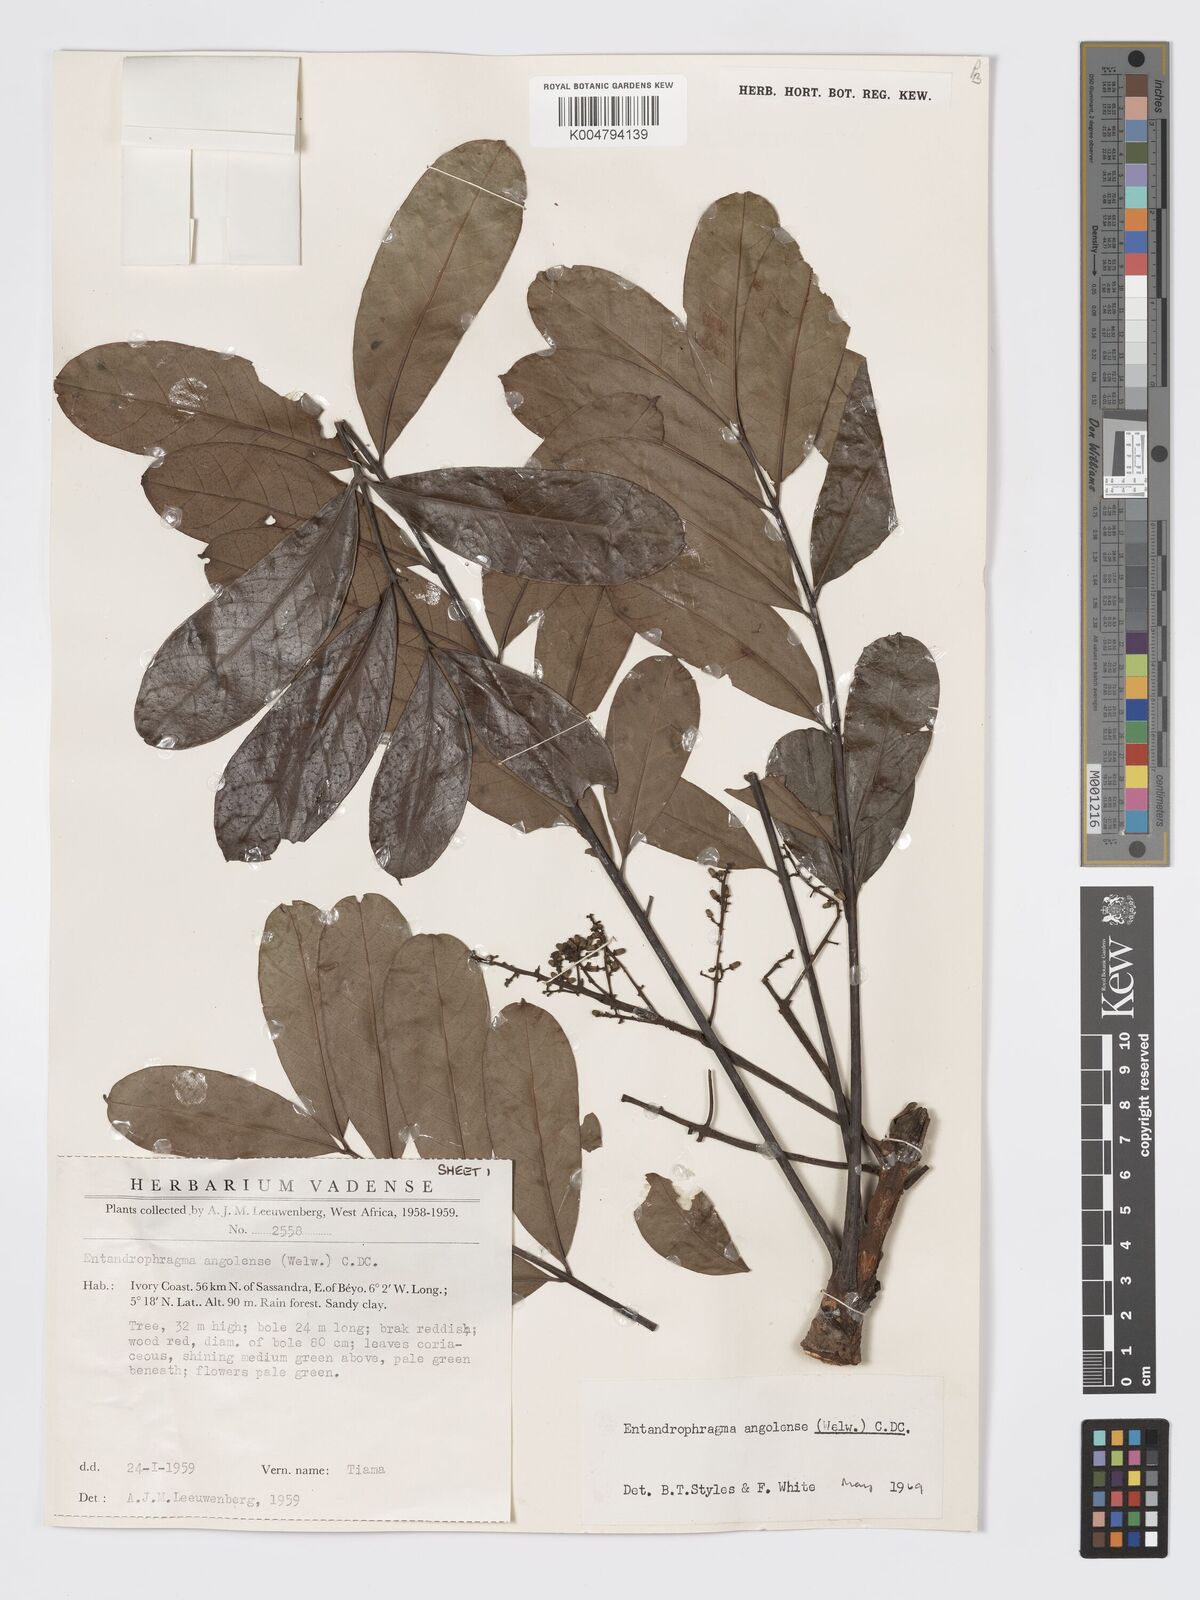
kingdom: Plantae
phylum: Tracheophyta
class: Magnoliopsida
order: Sapindales
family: Meliaceae
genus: Entandrophragma
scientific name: Entandrophragma angolense
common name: African mahogany
